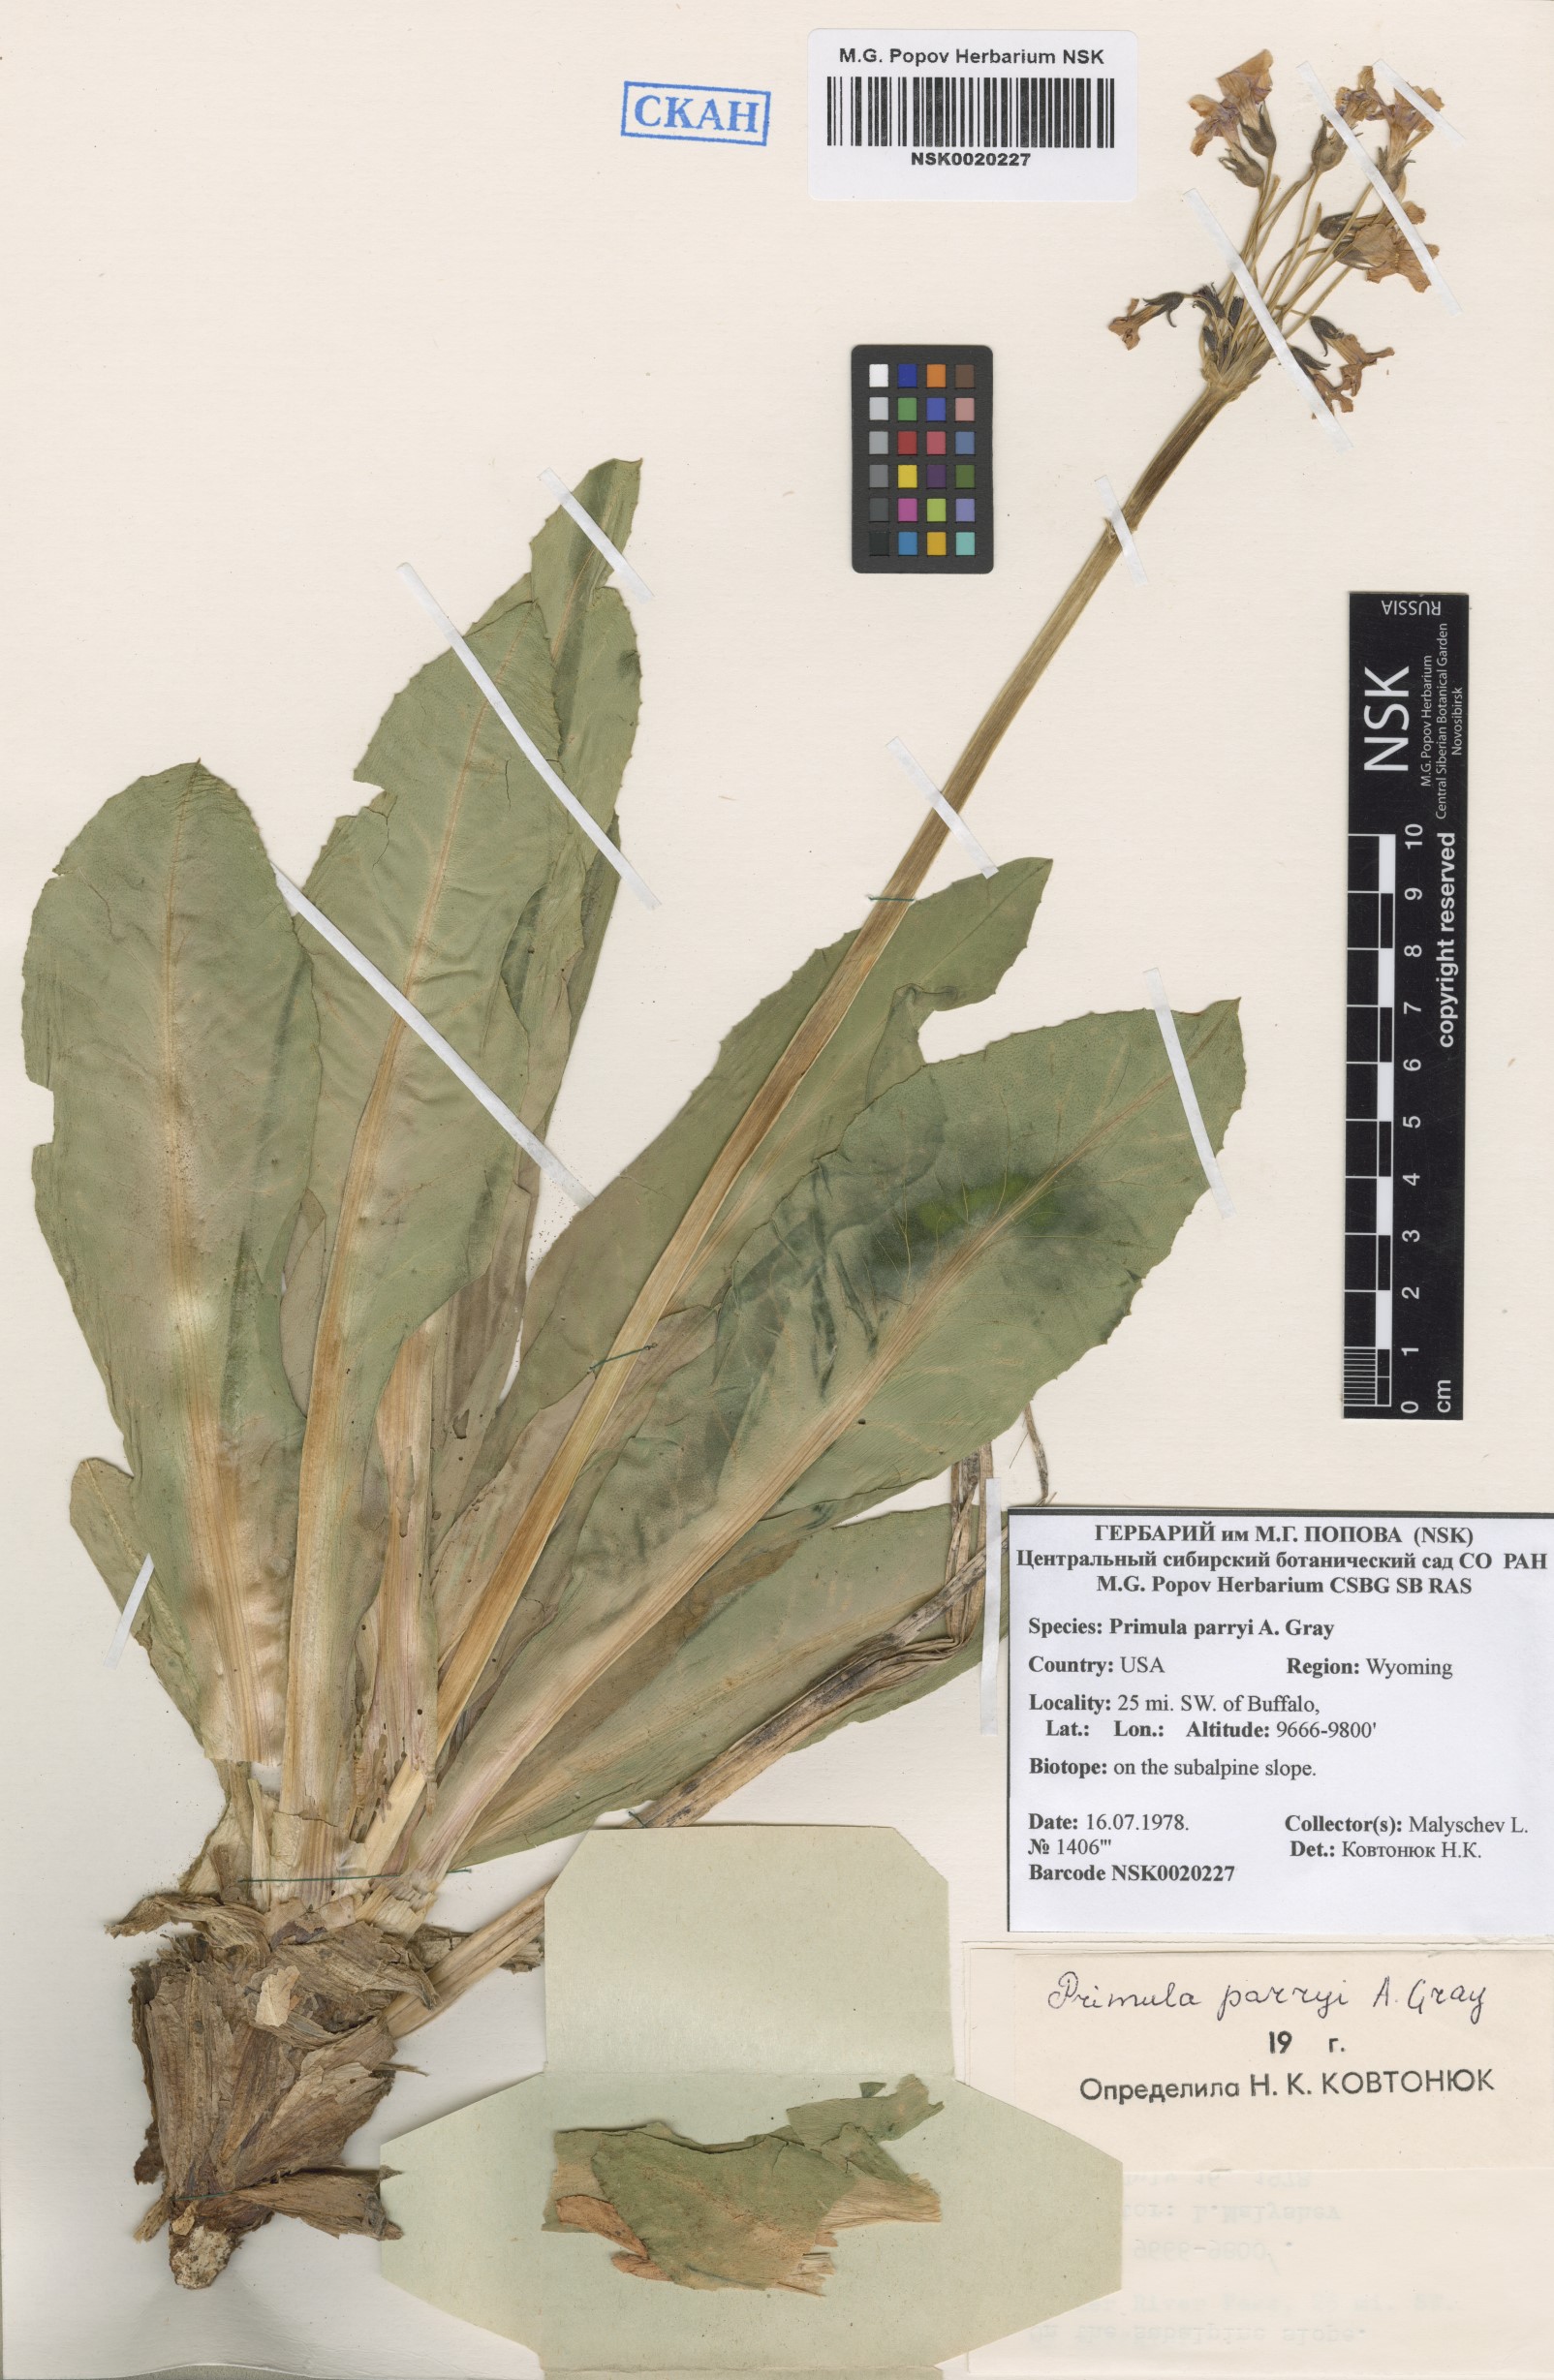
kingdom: Plantae
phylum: Tracheophyta
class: Magnoliopsida
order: Ericales
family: Primulaceae
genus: Primula
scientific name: Primula parryi
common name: Parry's primrose
